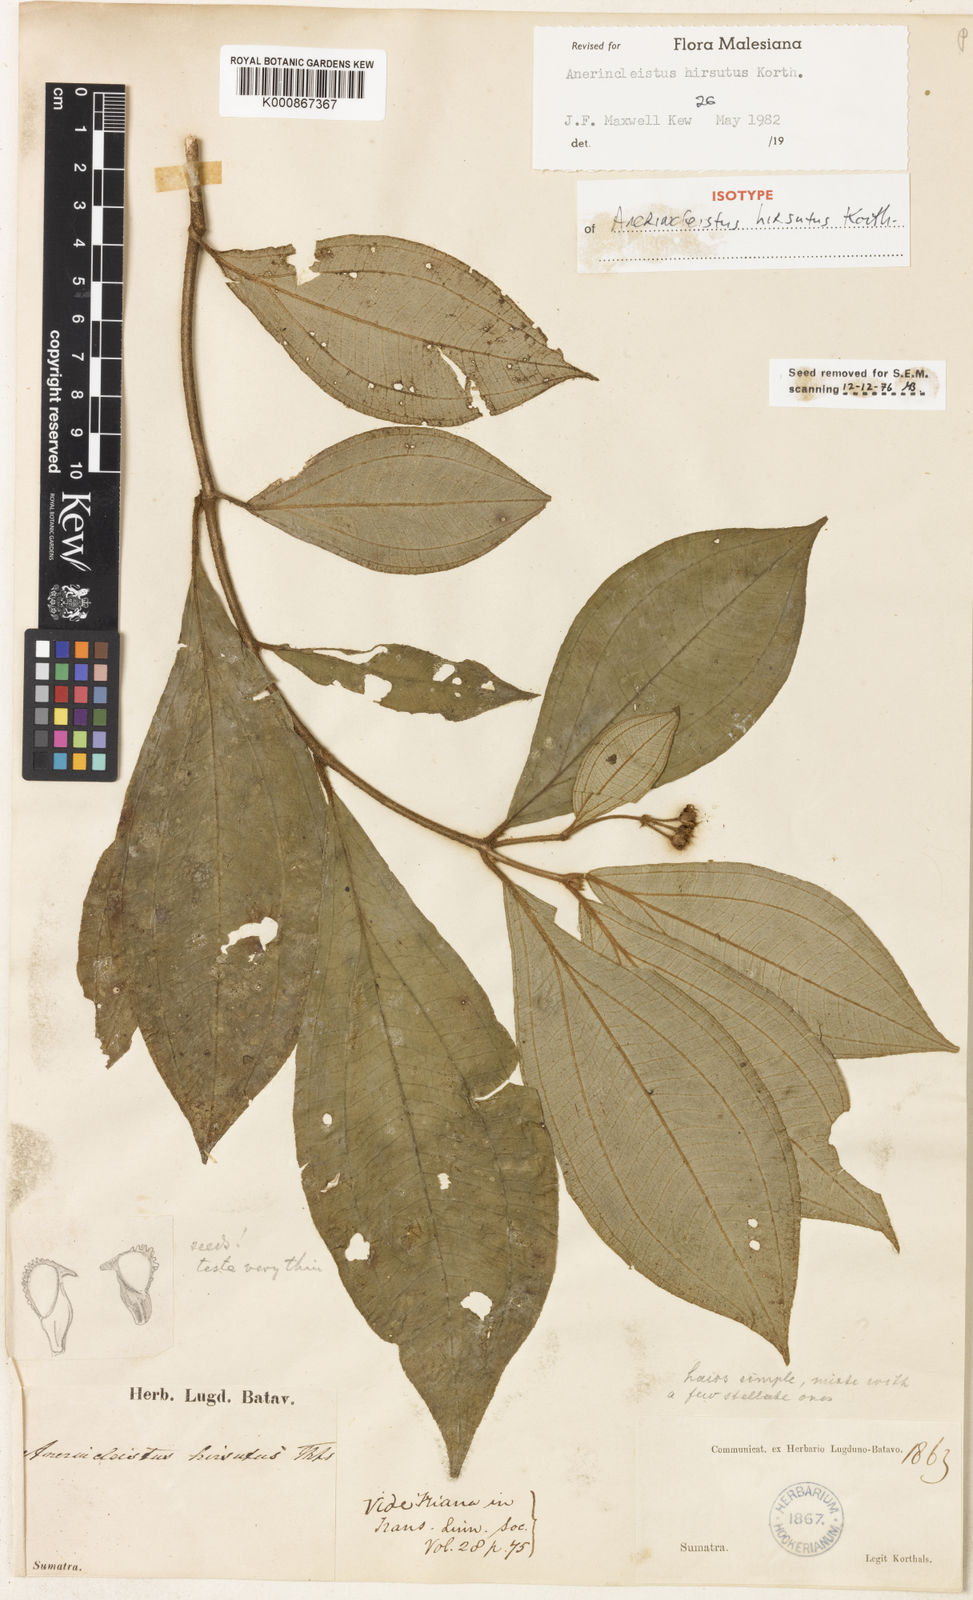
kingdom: Plantae
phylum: Tracheophyta
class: Magnoliopsida
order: Myrtales
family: Melastomataceae
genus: Anerincleistus
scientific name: Anerincleistus hirsutus
